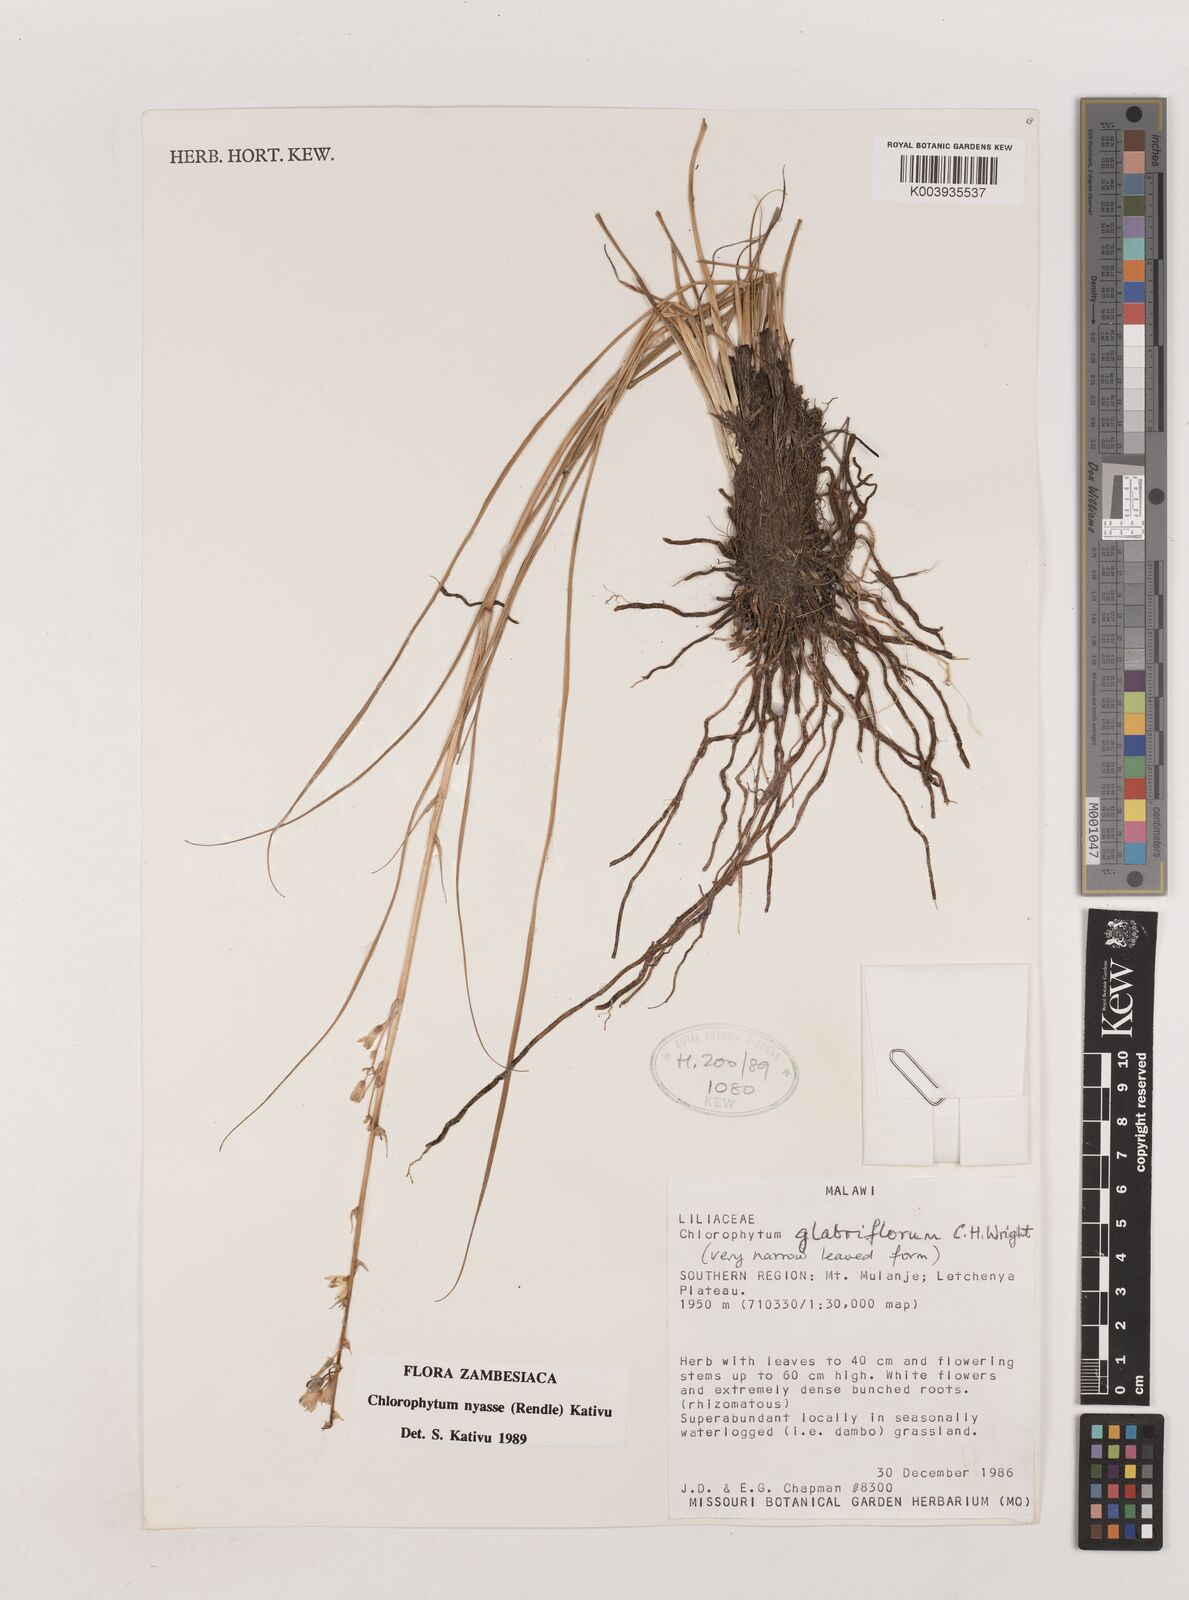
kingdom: Plantae
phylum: Tracheophyta
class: Liliopsida
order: Asparagales
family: Asparagaceae
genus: Chlorophytum
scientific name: Chlorophytum nyasae
